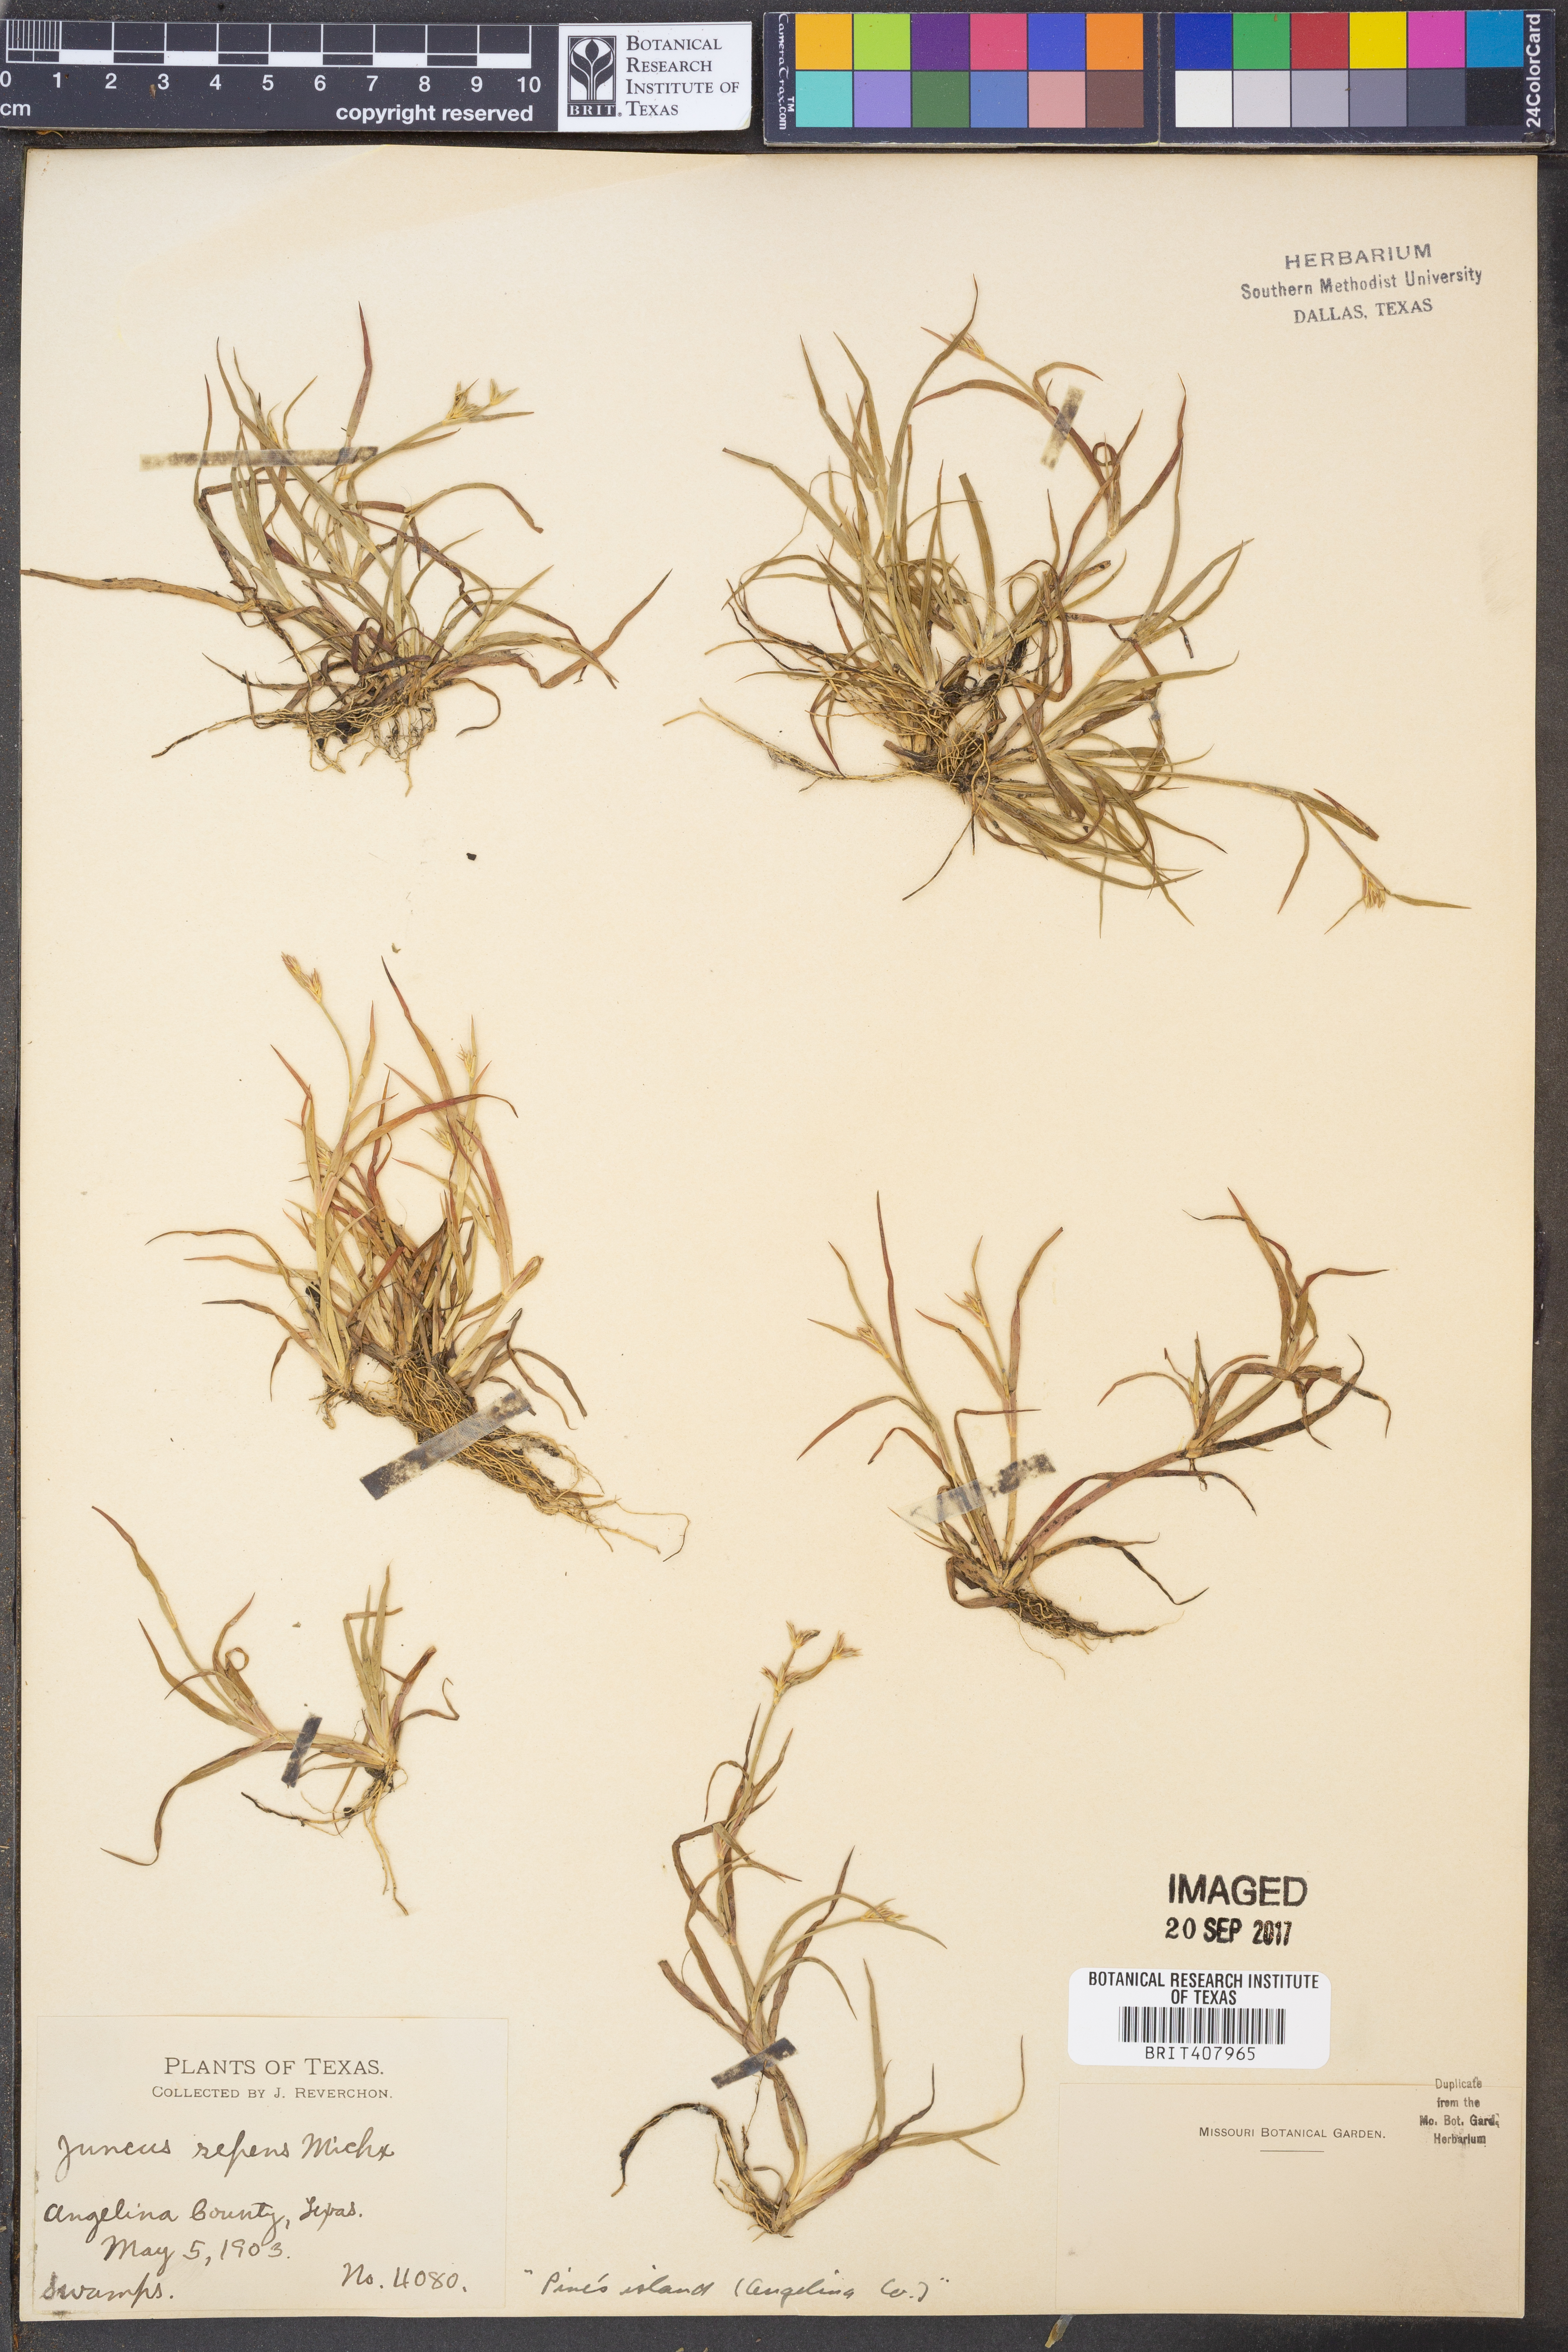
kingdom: Plantae
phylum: Tracheophyta
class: Liliopsida
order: Poales
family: Juncaceae
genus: Juncus
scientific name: Juncus repens
